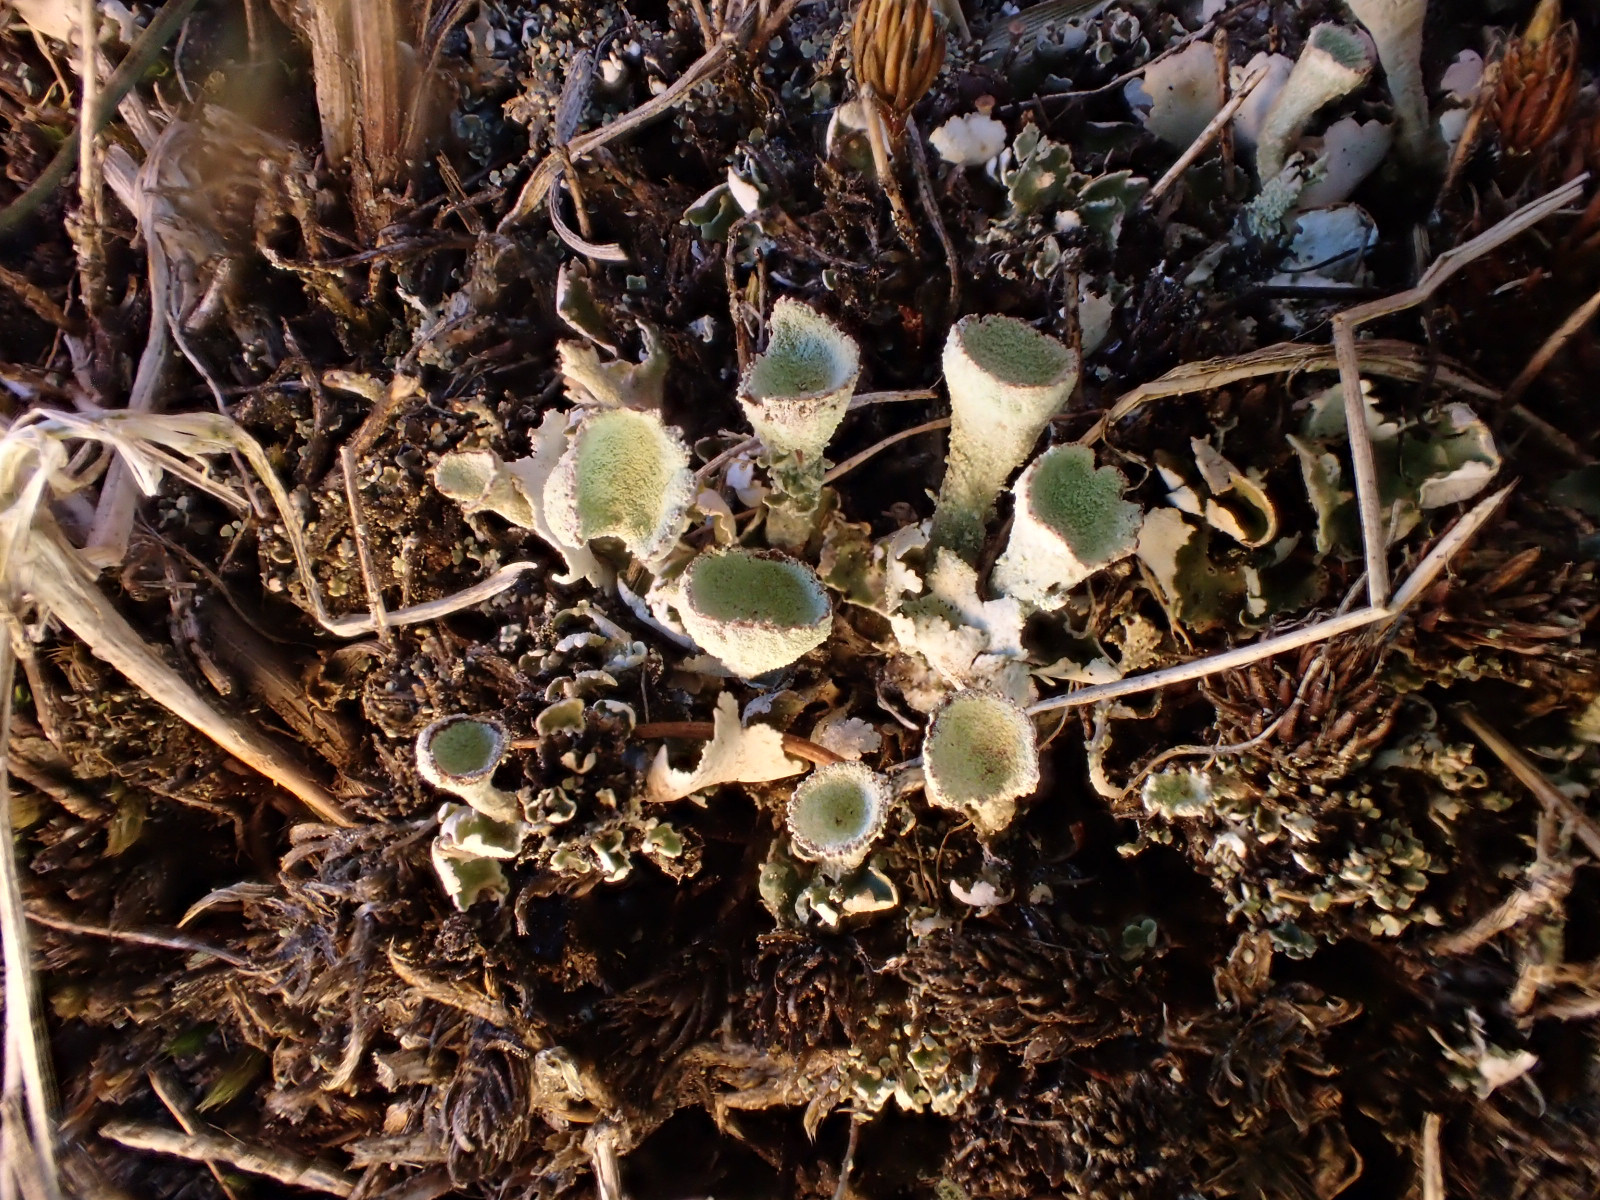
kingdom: Fungi
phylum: Ascomycota
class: Lecanoromycetes
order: Lecanorales
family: Cladoniaceae
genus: Cladonia
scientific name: Cladonia humilis
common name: lav bægerlav
